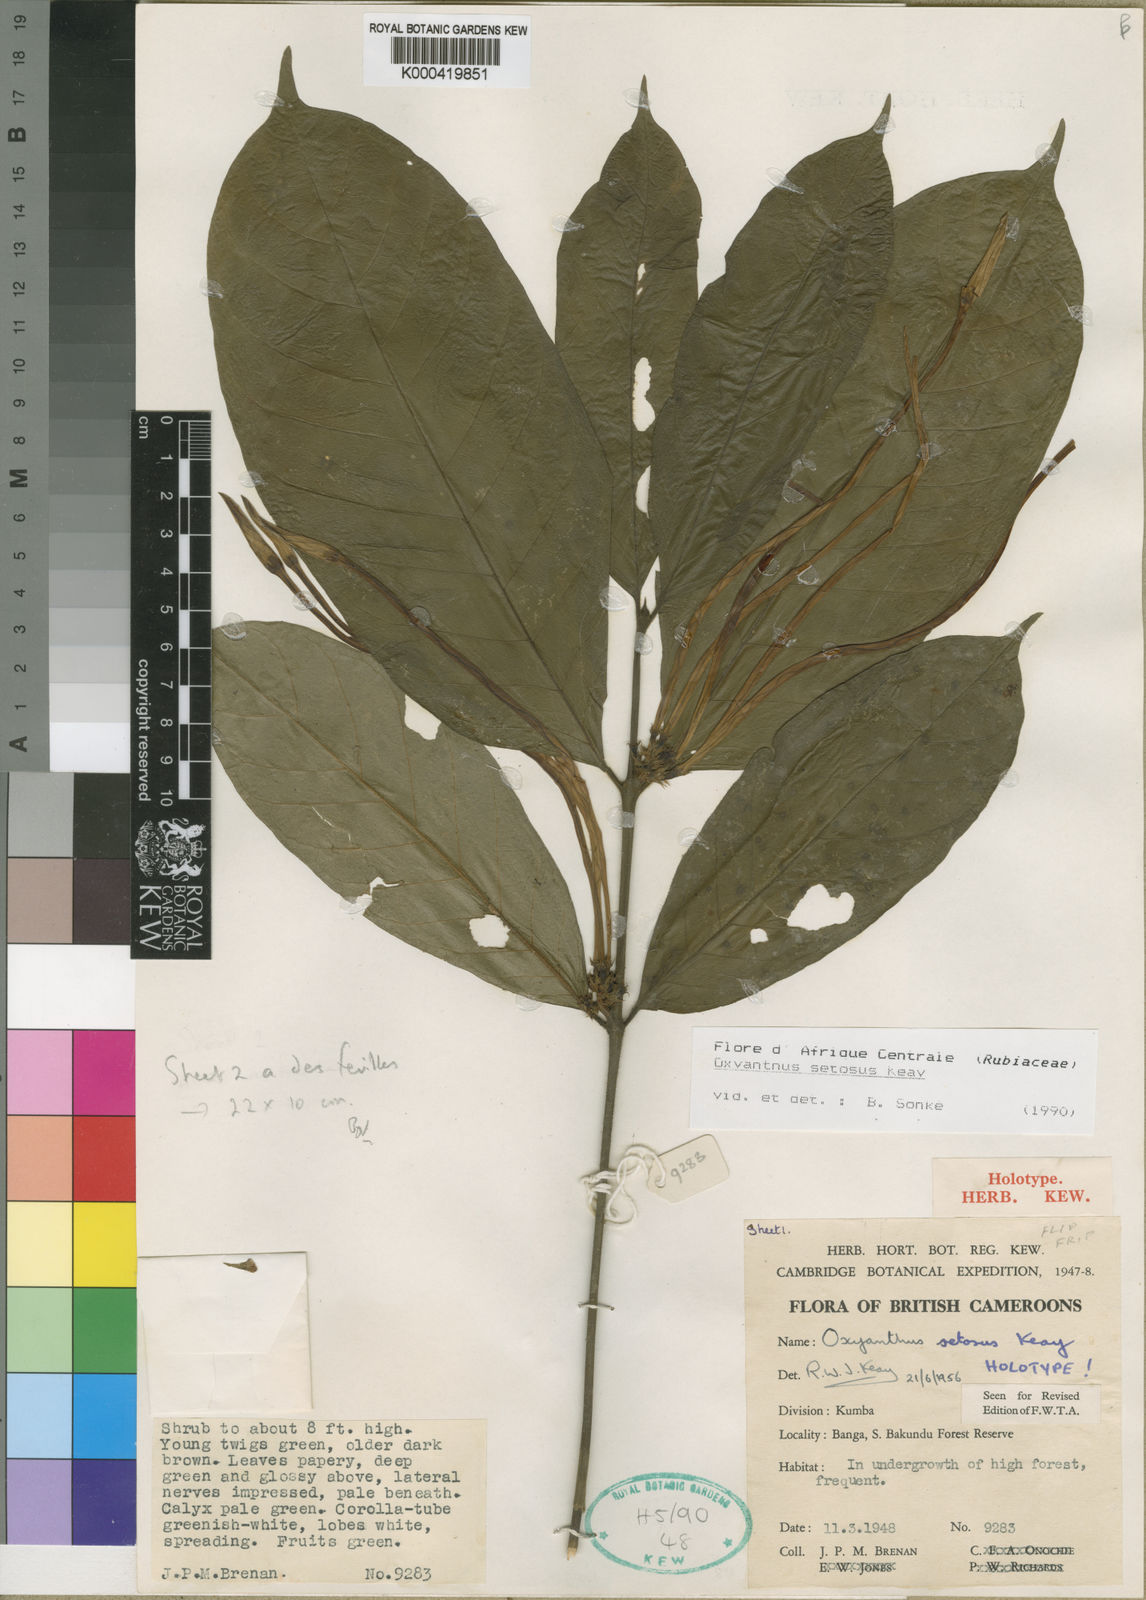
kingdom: Plantae
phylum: Tracheophyta
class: Magnoliopsida
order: Gentianales
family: Rubiaceae
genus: Oxyanthus
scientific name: Oxyanthus setosus
